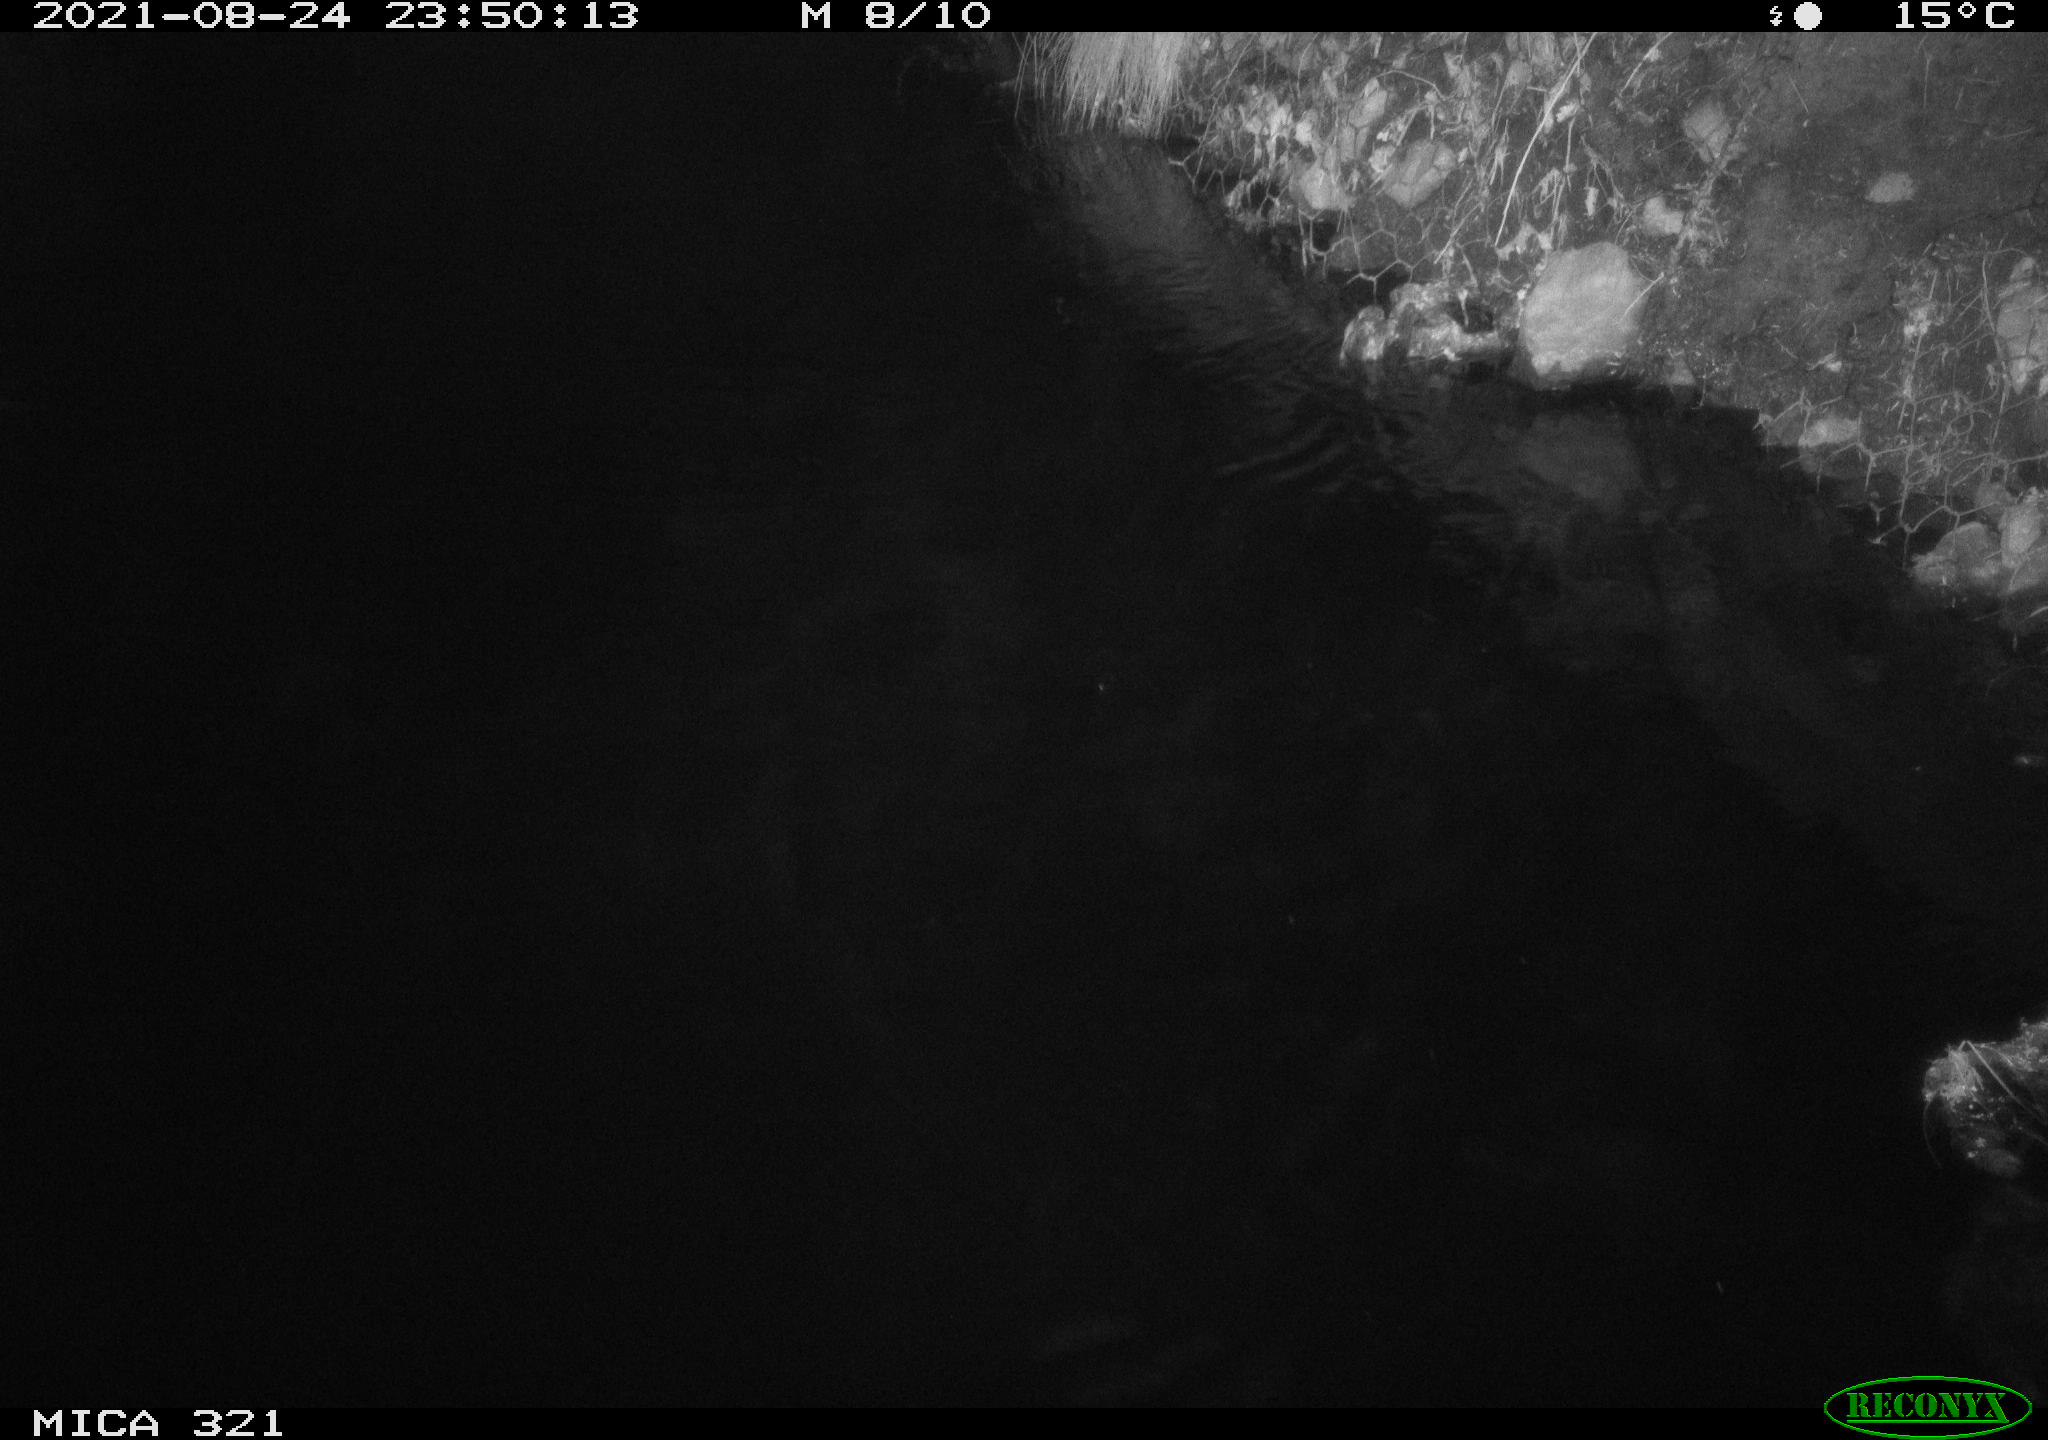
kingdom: Animalia
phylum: Chordata
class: Aves
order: Anseriformes
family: Anatidae
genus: Anas
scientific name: Anas platyrhynchos
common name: Mallard
